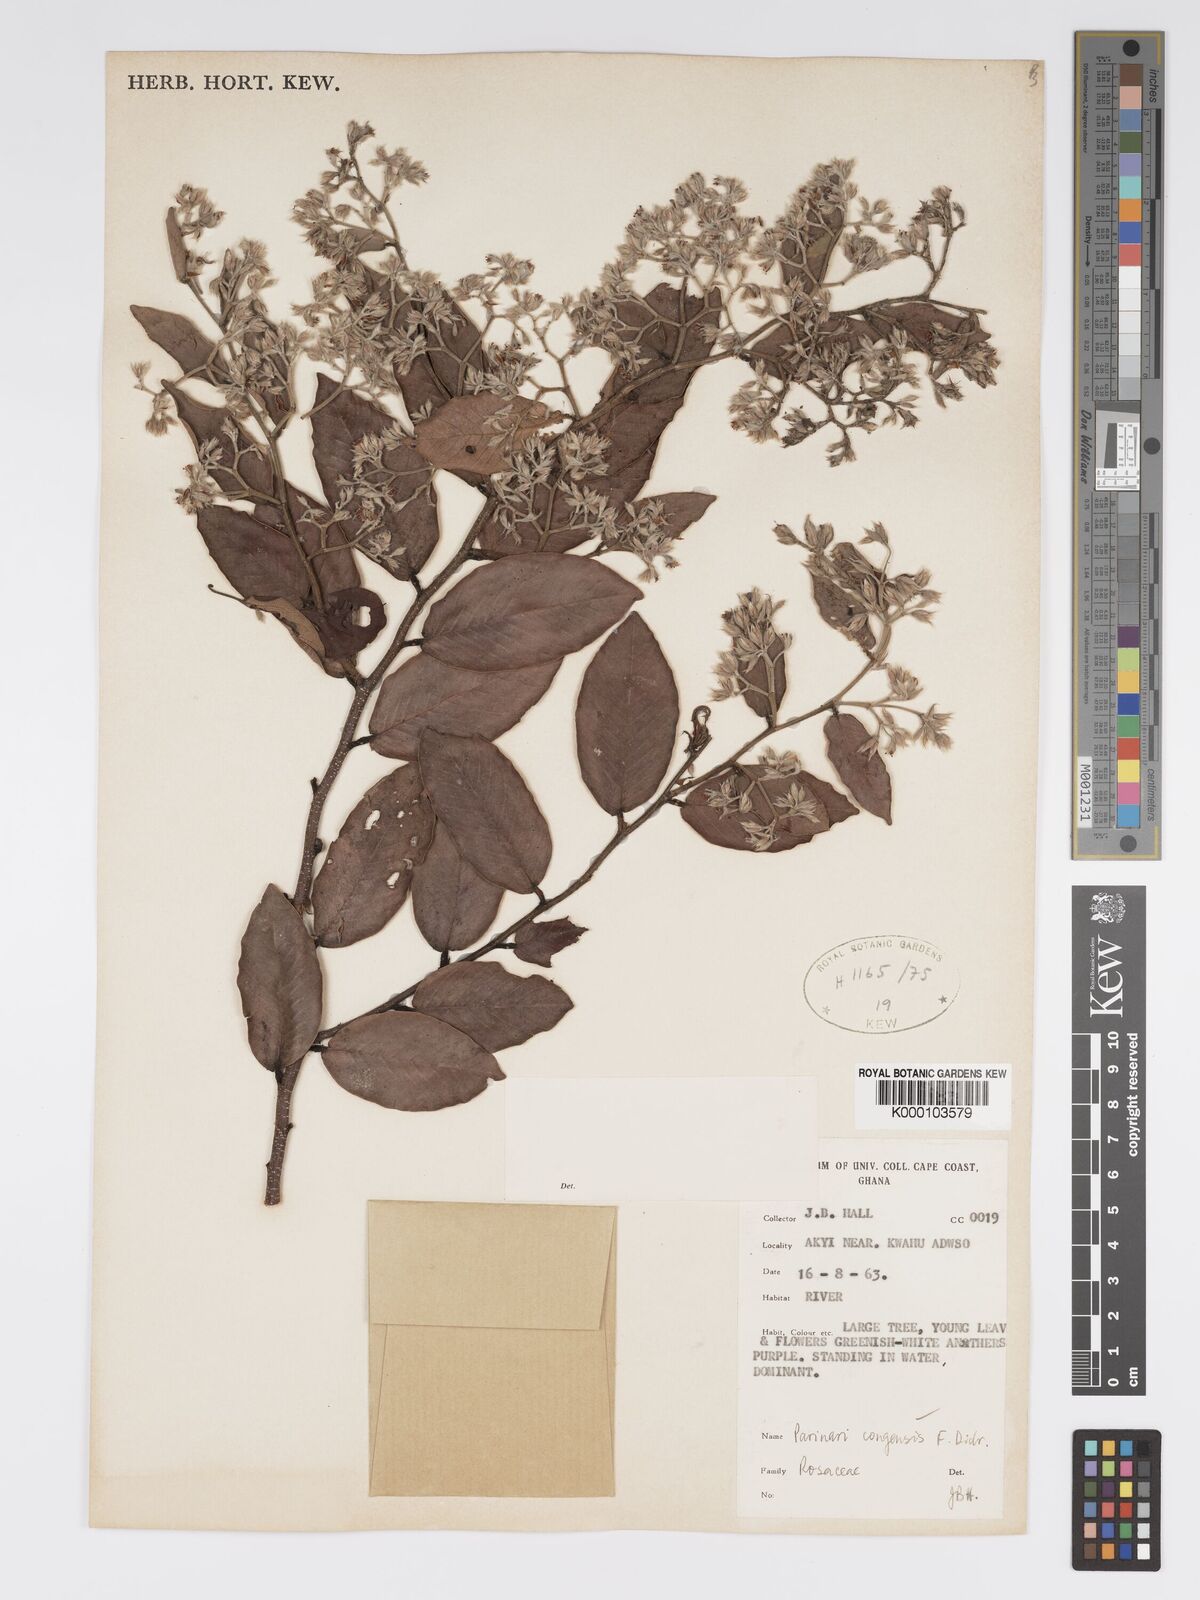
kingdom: Plantae
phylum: Tracheophyta
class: Magnoliopsida
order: Malpighiales
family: Chrysobalanaceae
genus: Parinari
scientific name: Parinari congensis
